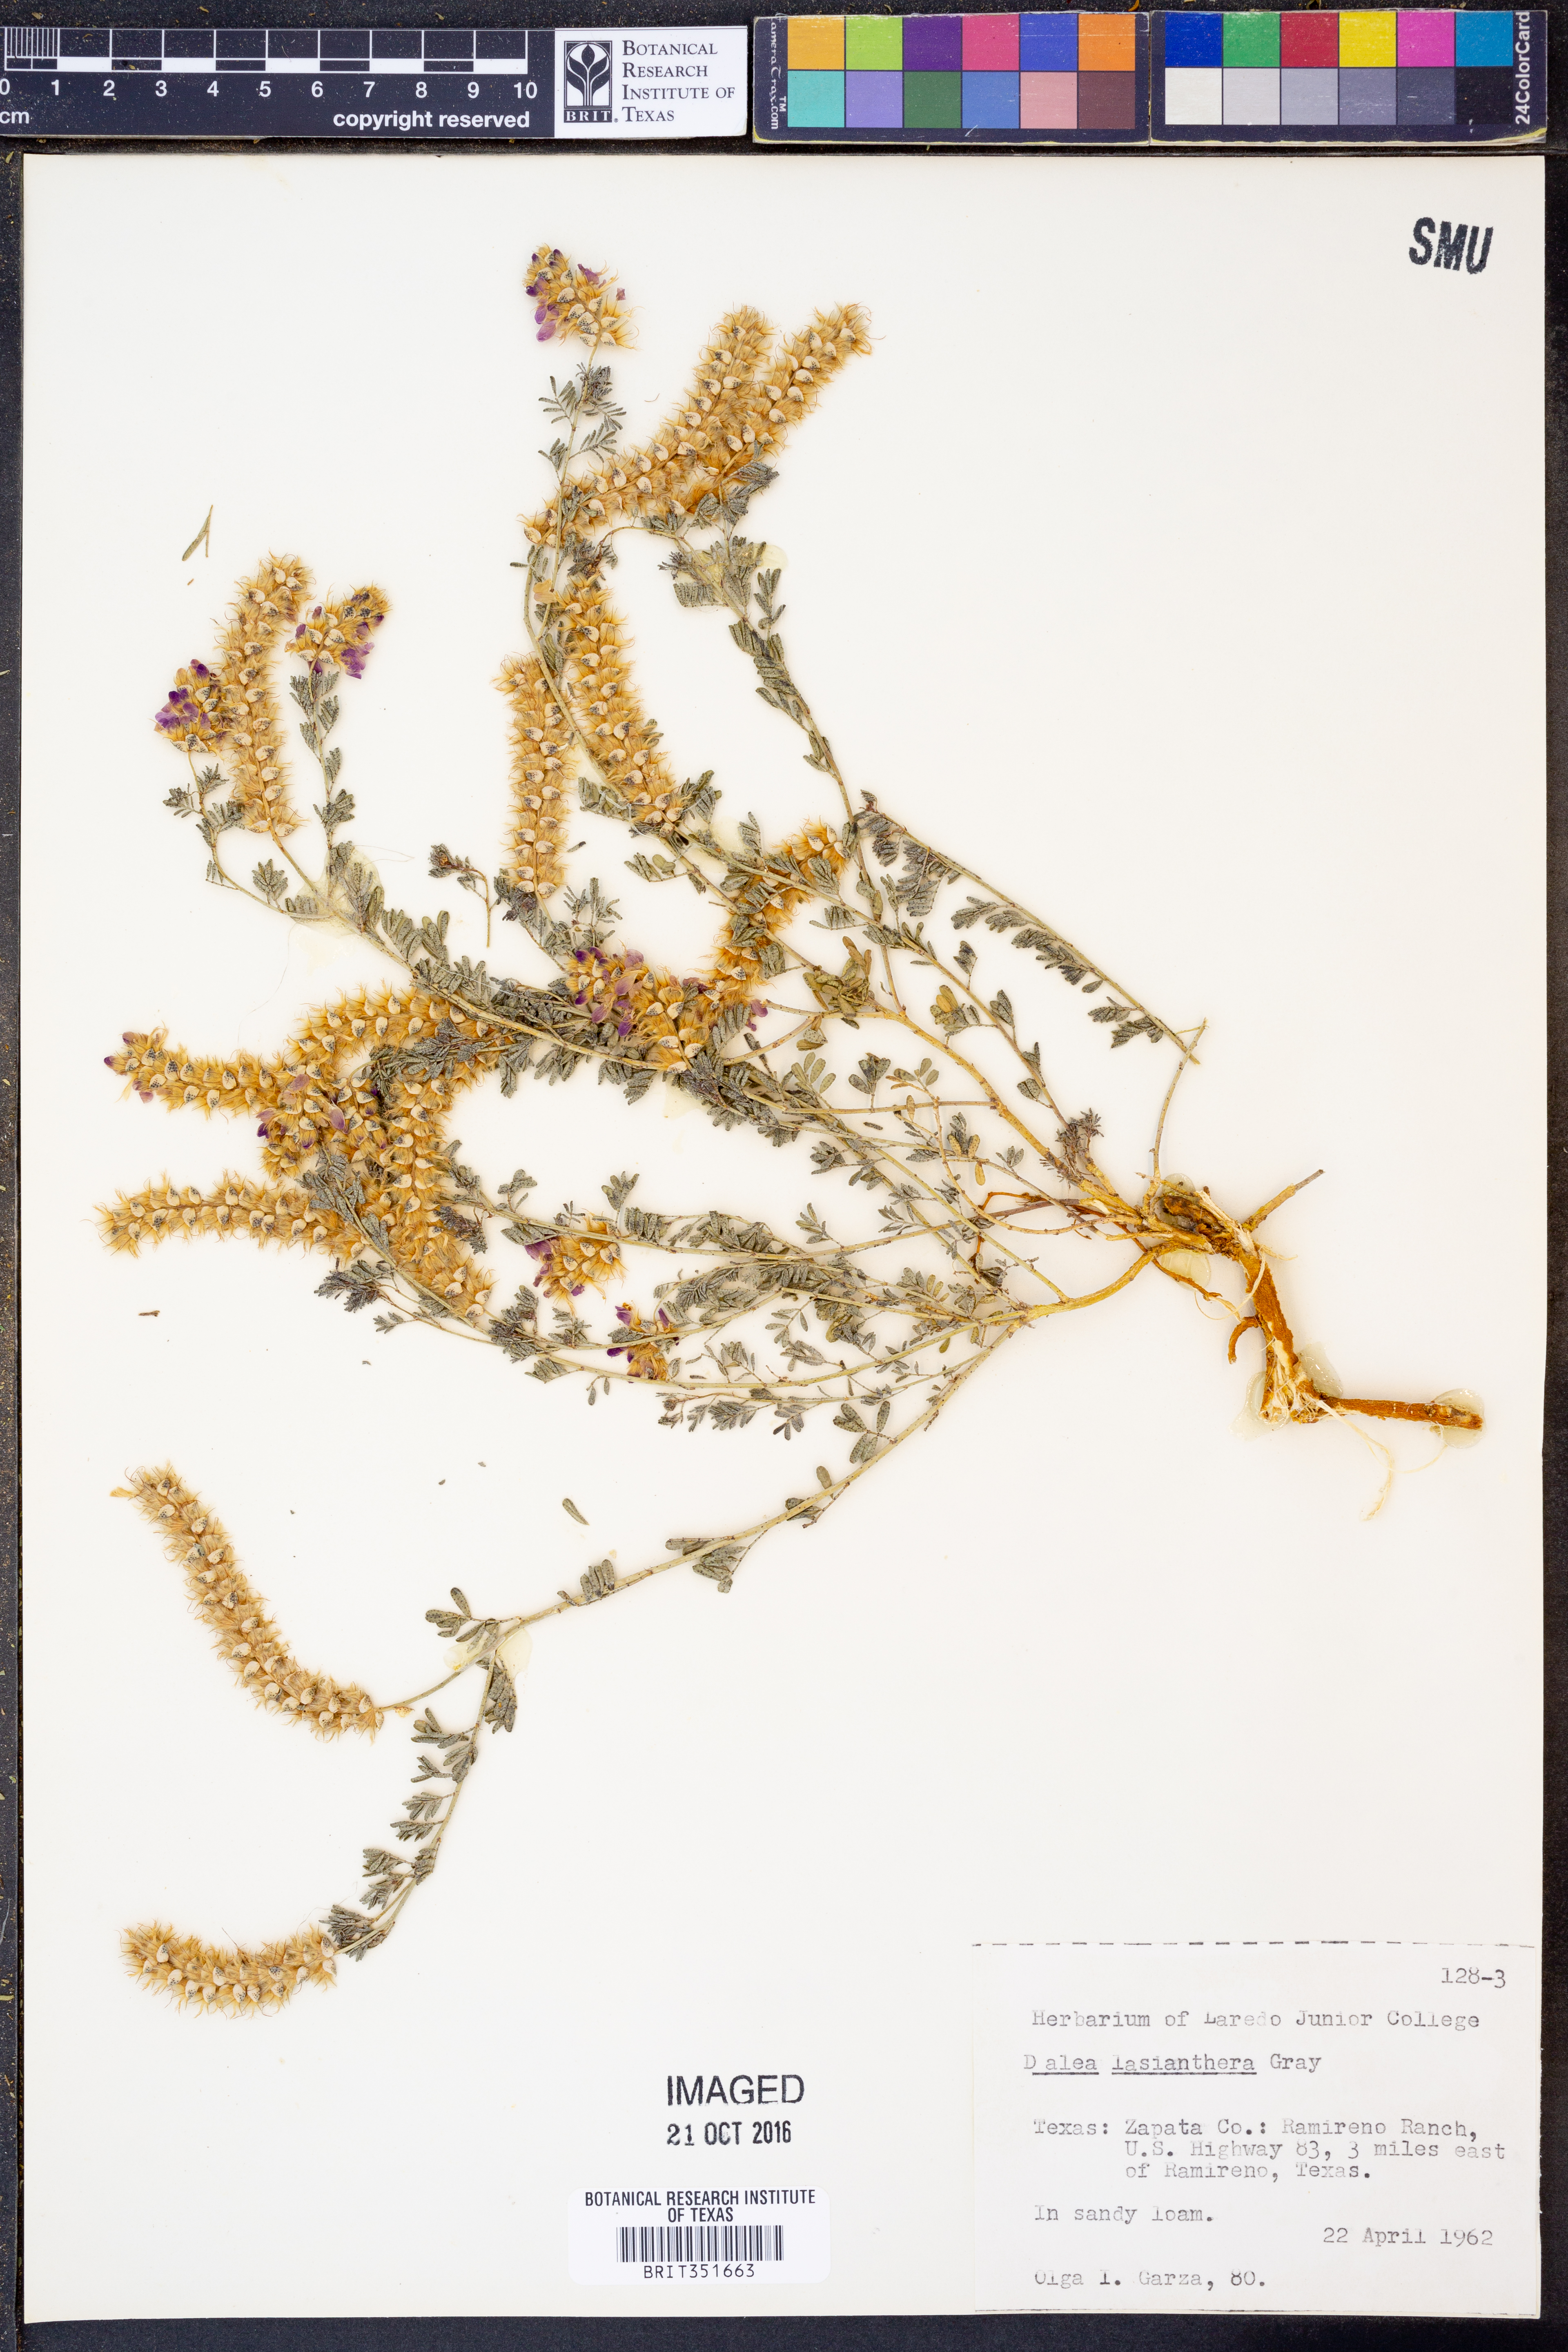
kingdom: Plantae
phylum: Tracheophyta
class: Magnoliopsida
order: Fabales
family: Fabaceae
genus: Dalea
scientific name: Dalea lasiathera
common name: Purple prairie-clover
